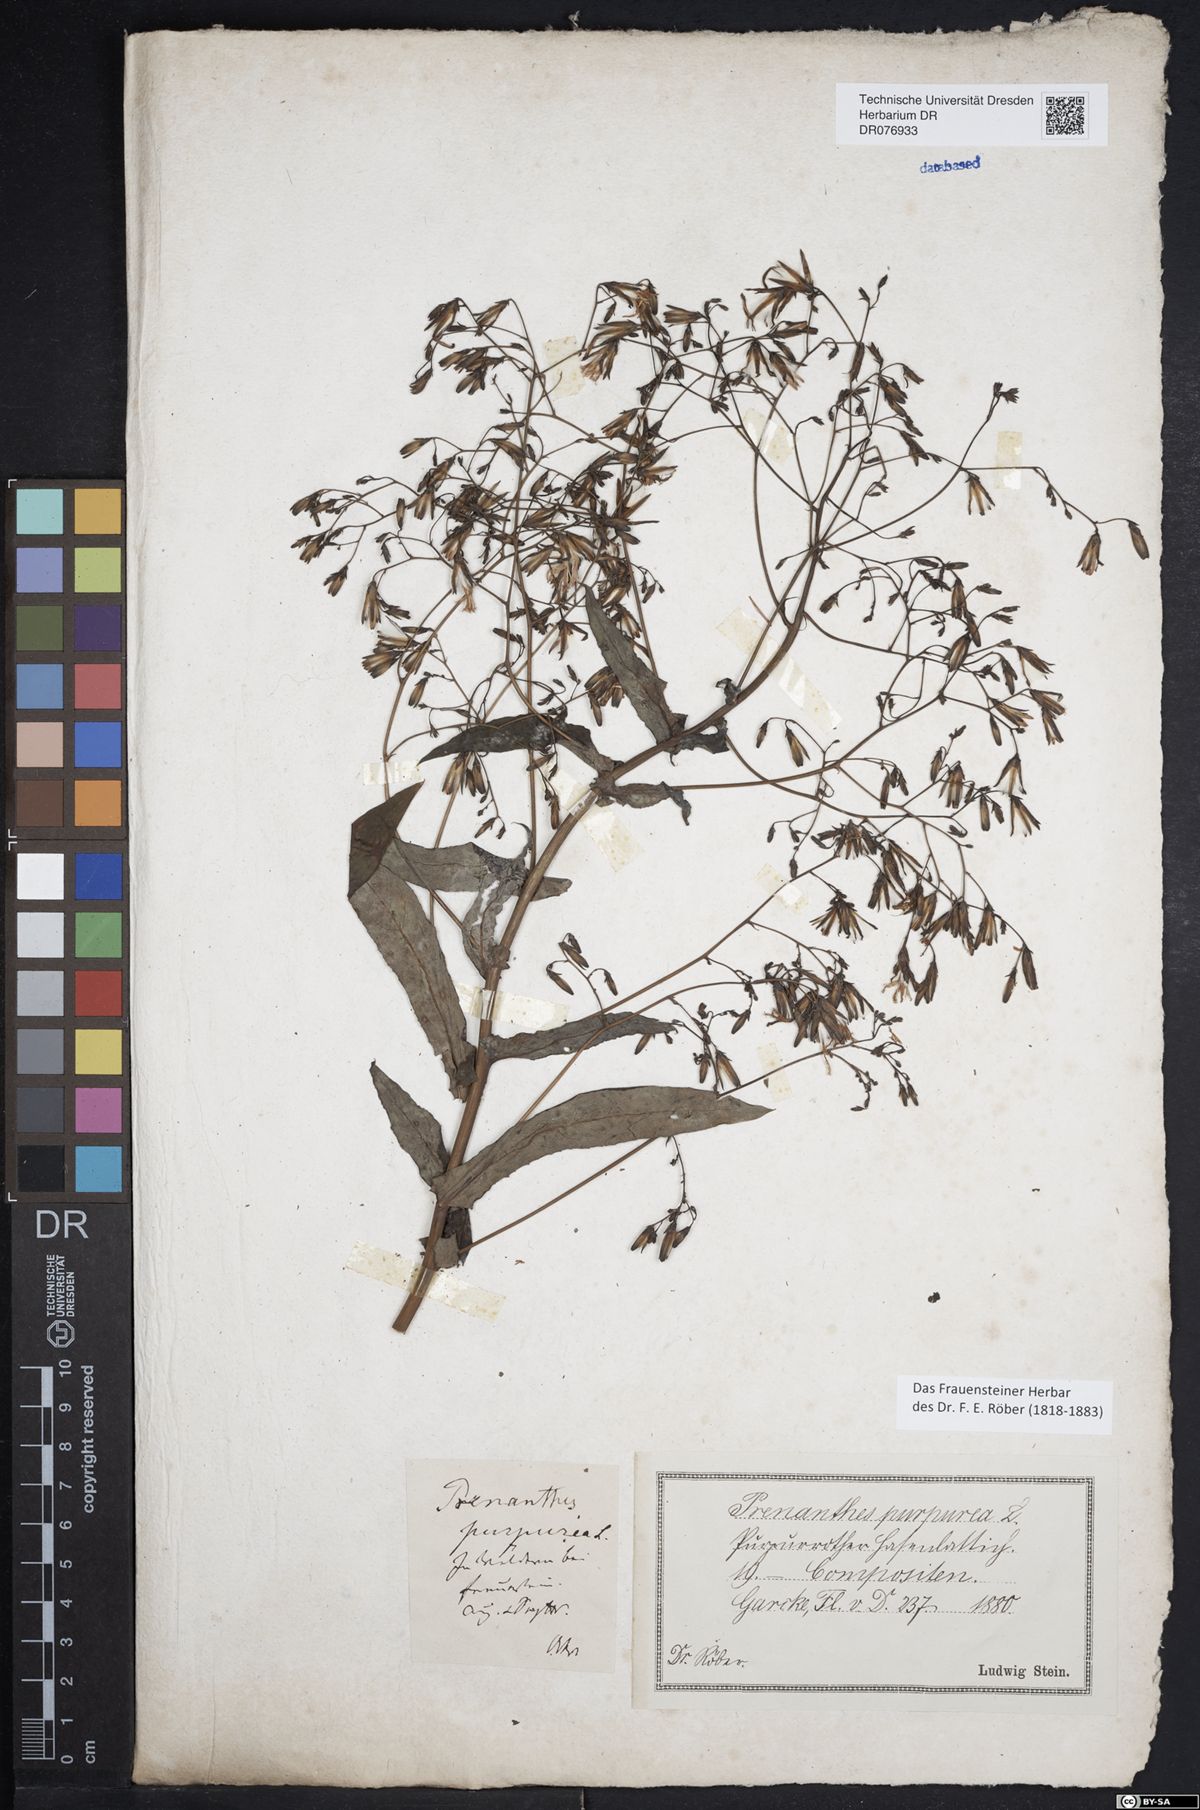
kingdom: Plantae
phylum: Tracheophyta
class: Magnoliopsida
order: Asterales
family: Asteraceae
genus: Prenanthes
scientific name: Prenanthes purpurea
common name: Purple lettuce
